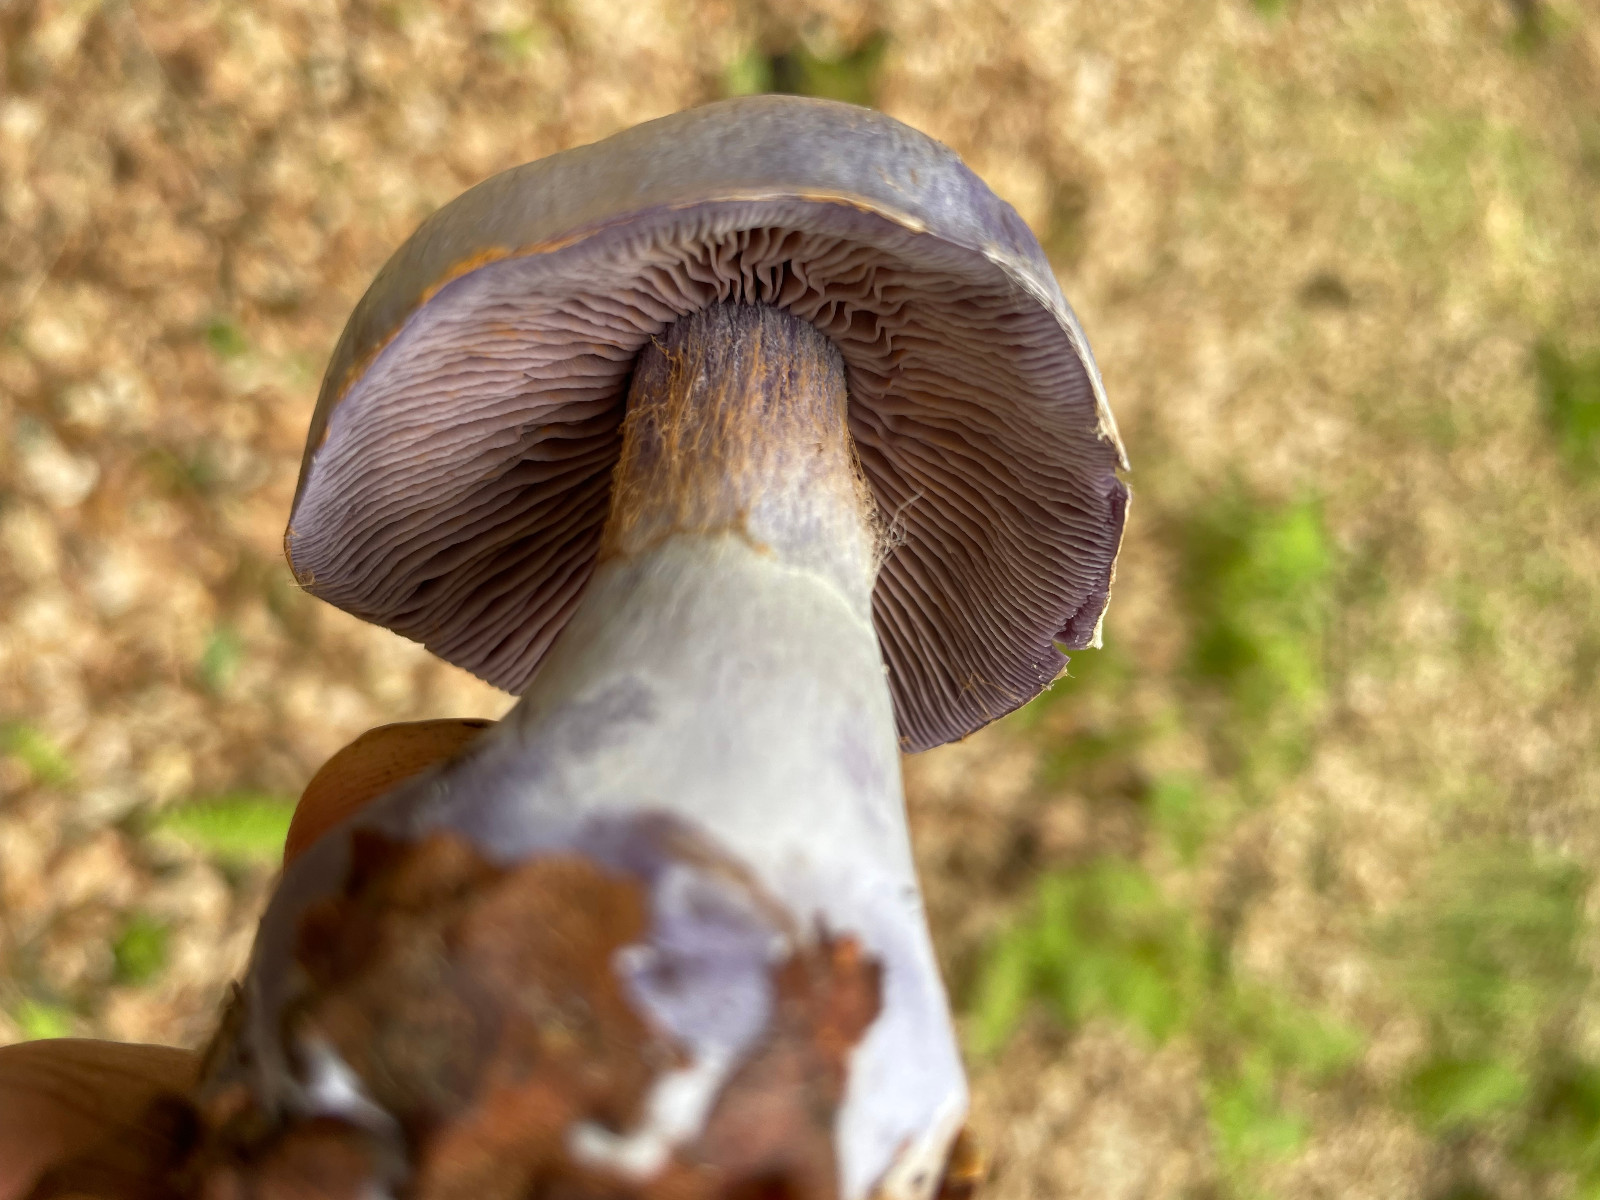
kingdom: Fungi
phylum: Basidiomycota
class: Agaricomycetes
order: Agaricales
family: Cortinariaceae
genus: Cortinarius
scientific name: Cortinarius
